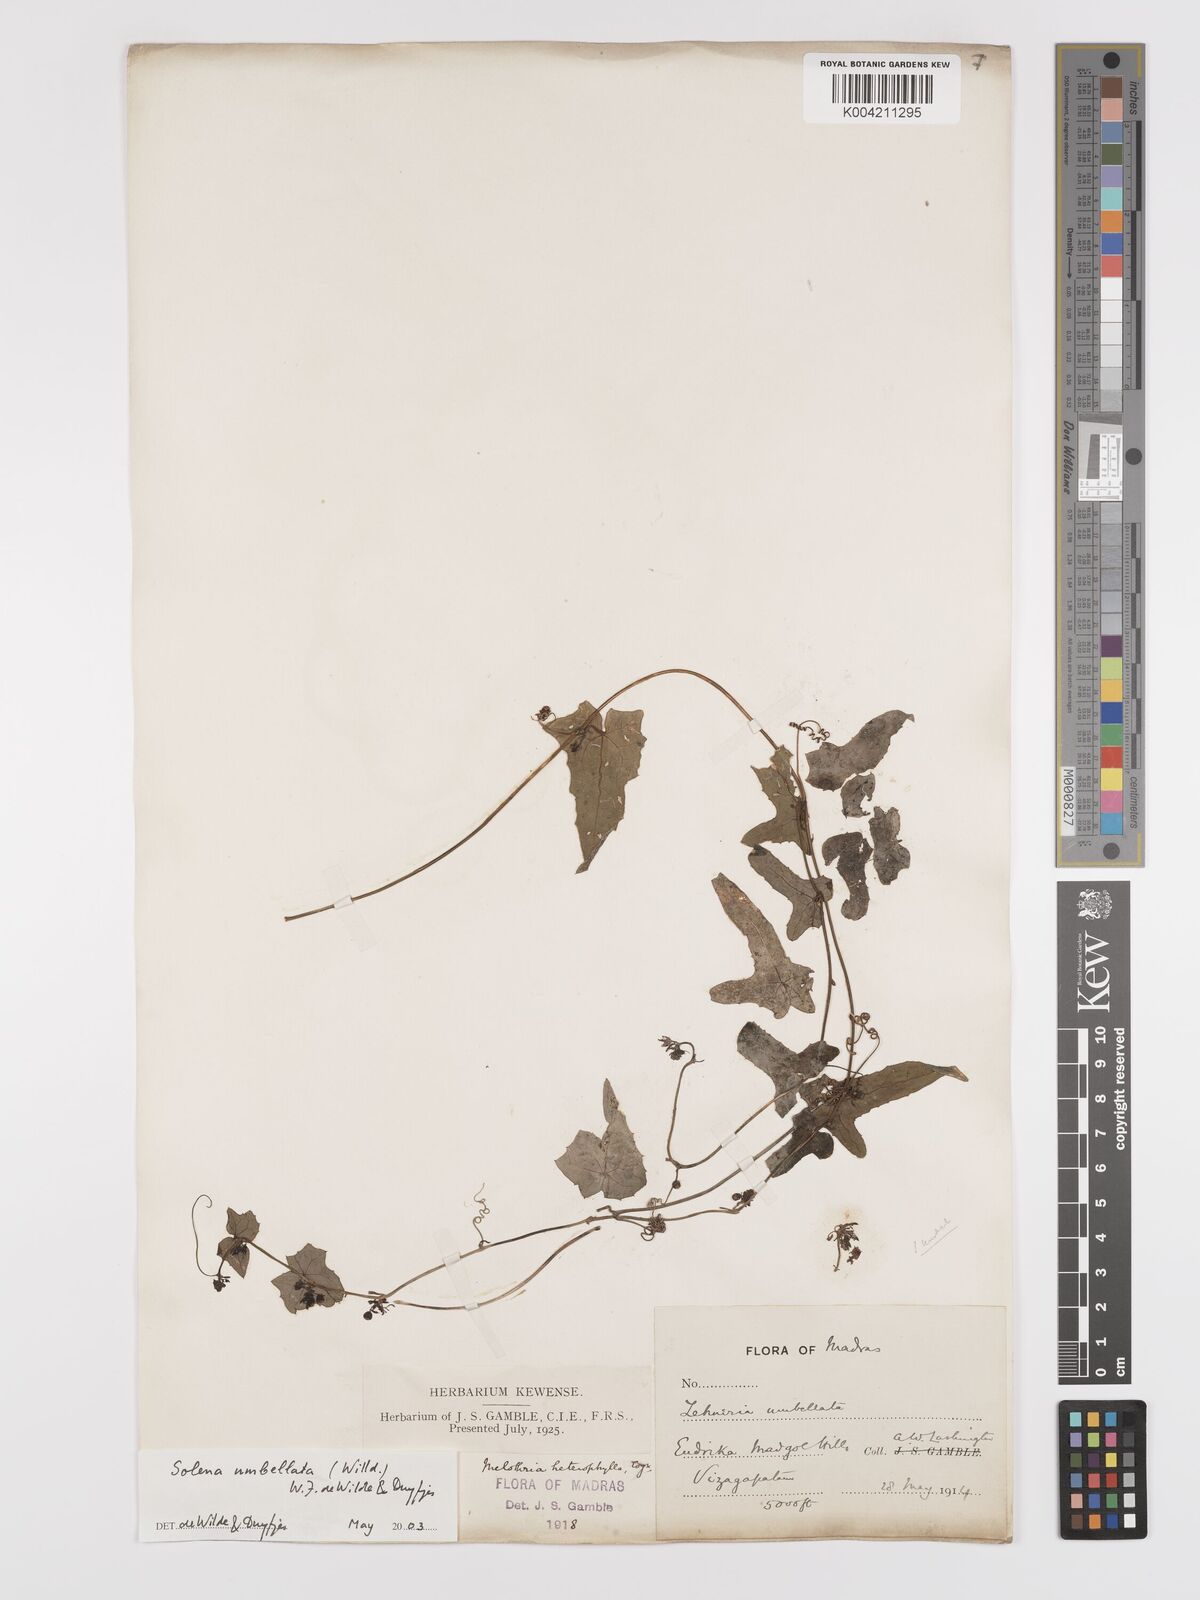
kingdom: Plantae
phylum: Tracheophyta
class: Magnoliopsida
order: Cucurbitales
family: Cucurbitaceae
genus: Solena
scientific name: Solena amplexicaulis
